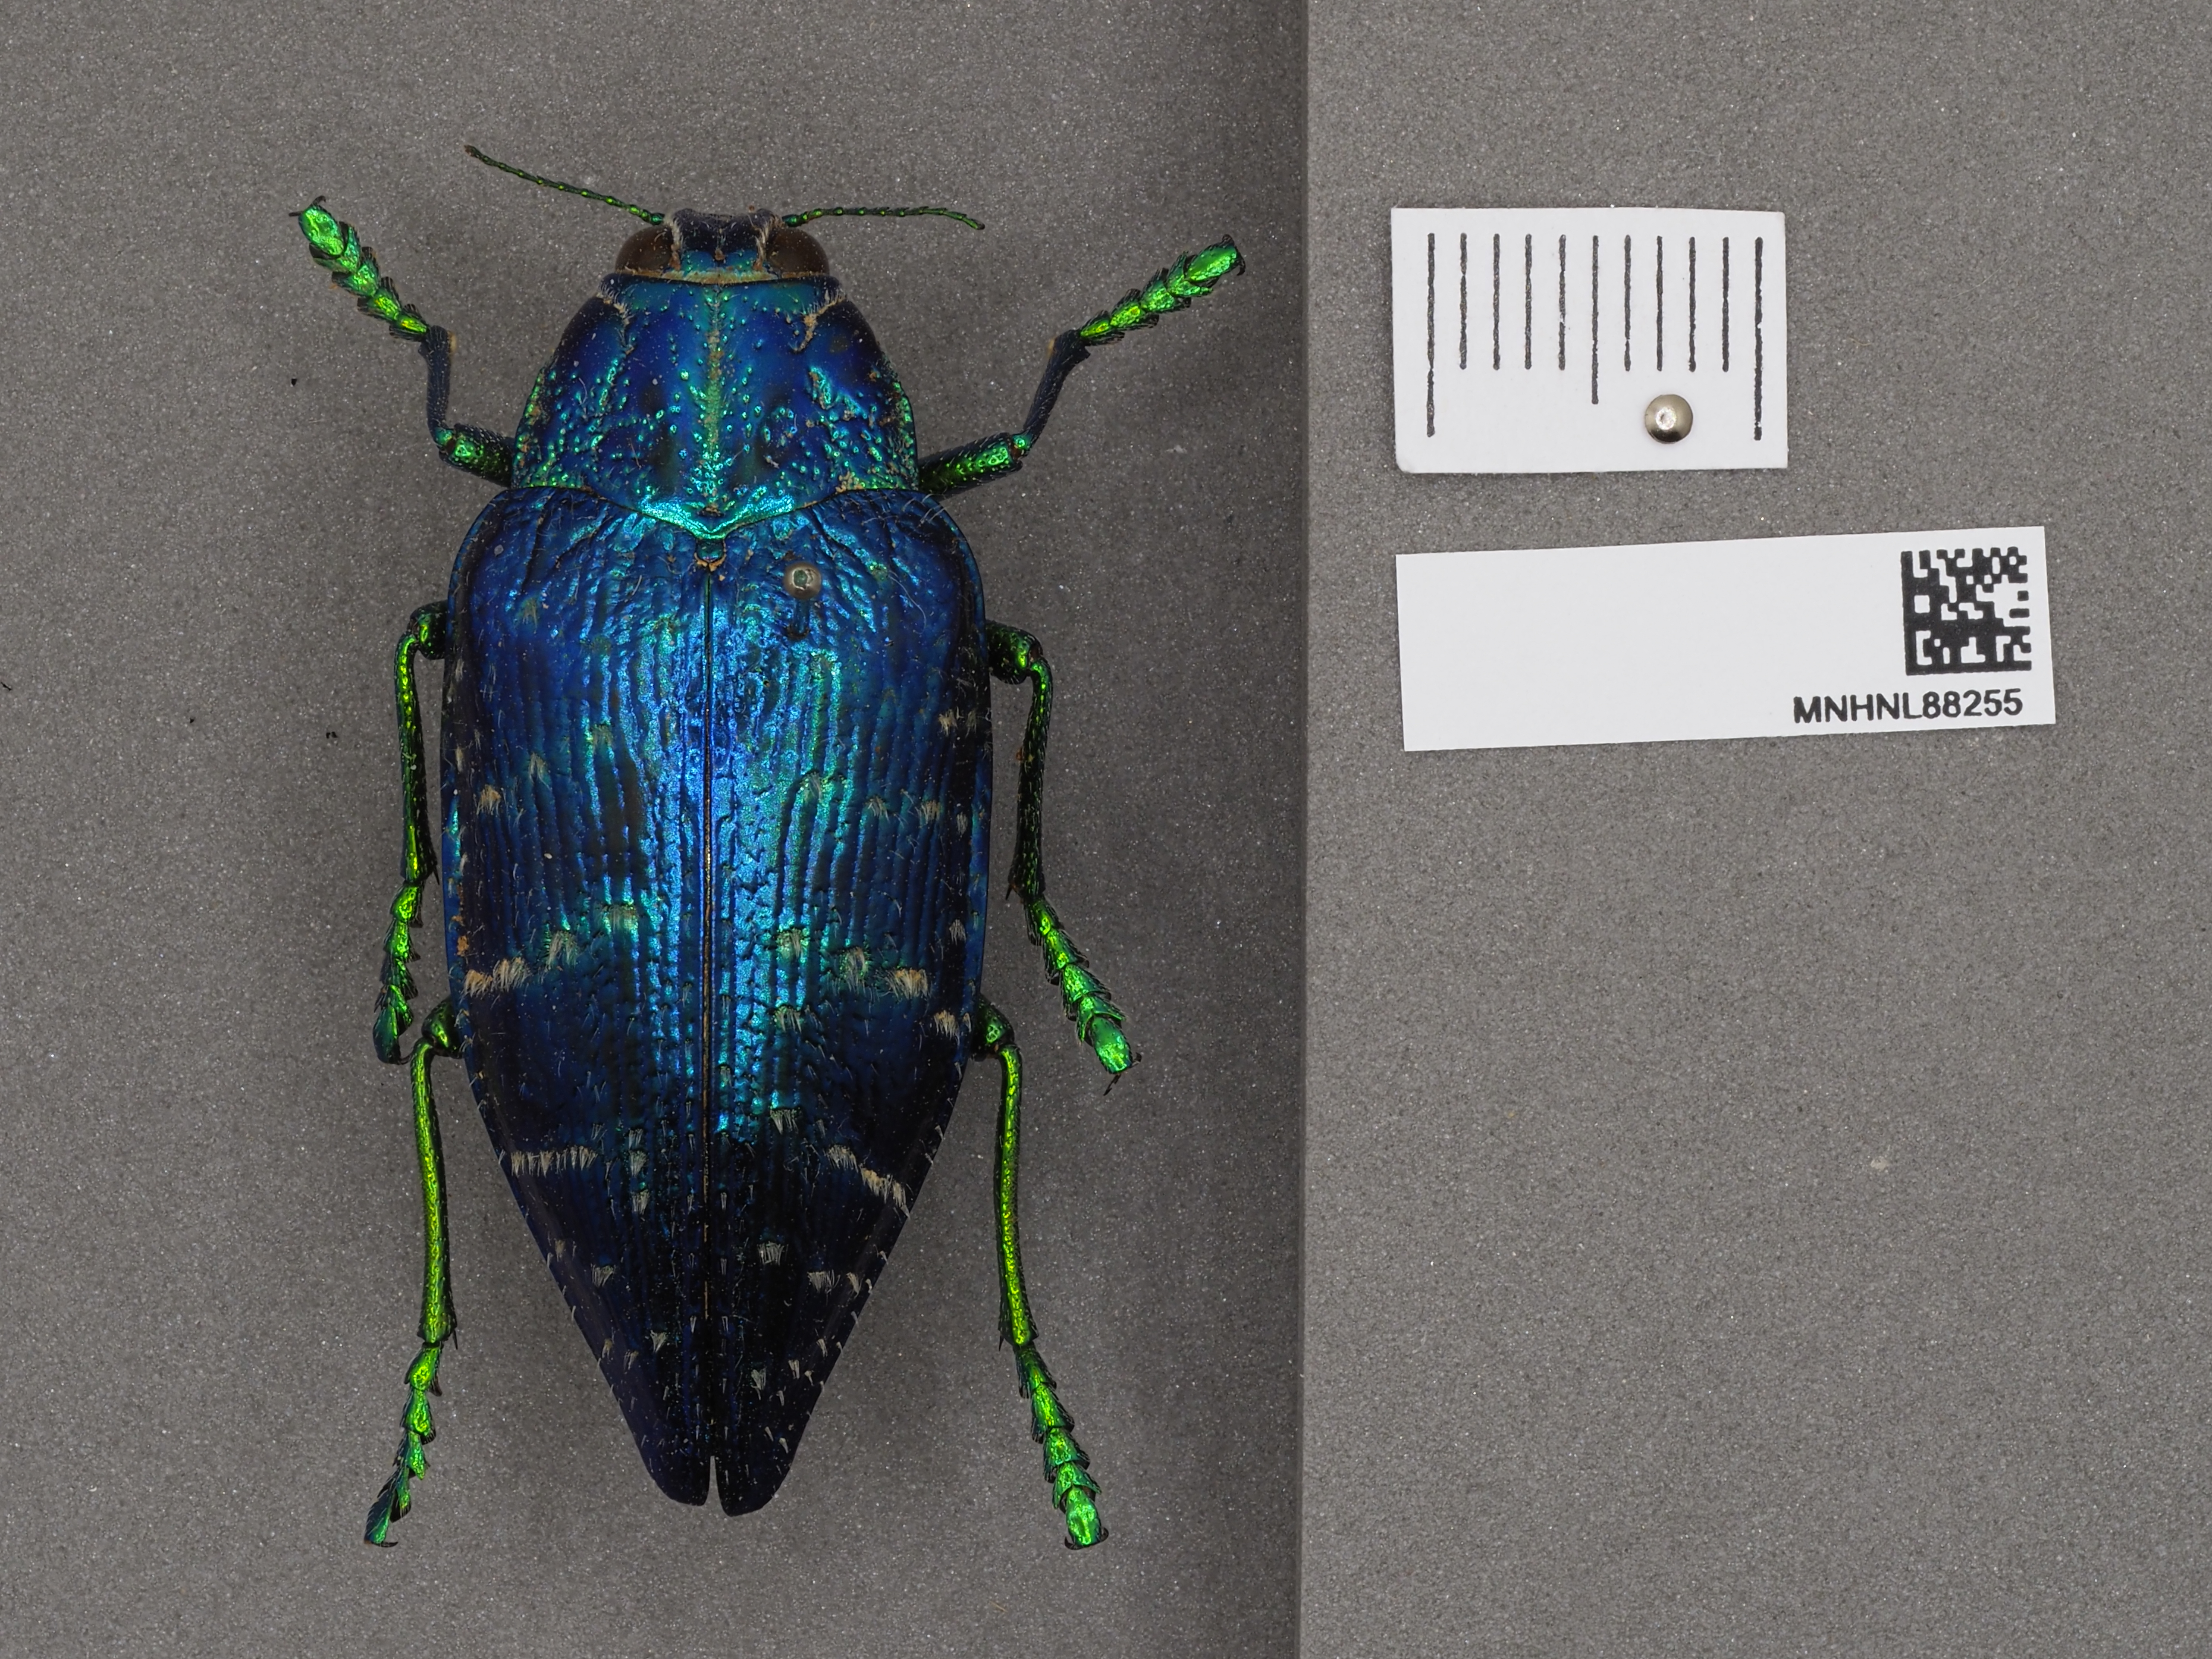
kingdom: Animalia
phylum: Arthropoda
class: Insecta
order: Coleoptera
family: Buprestidae
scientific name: Buprestidae
